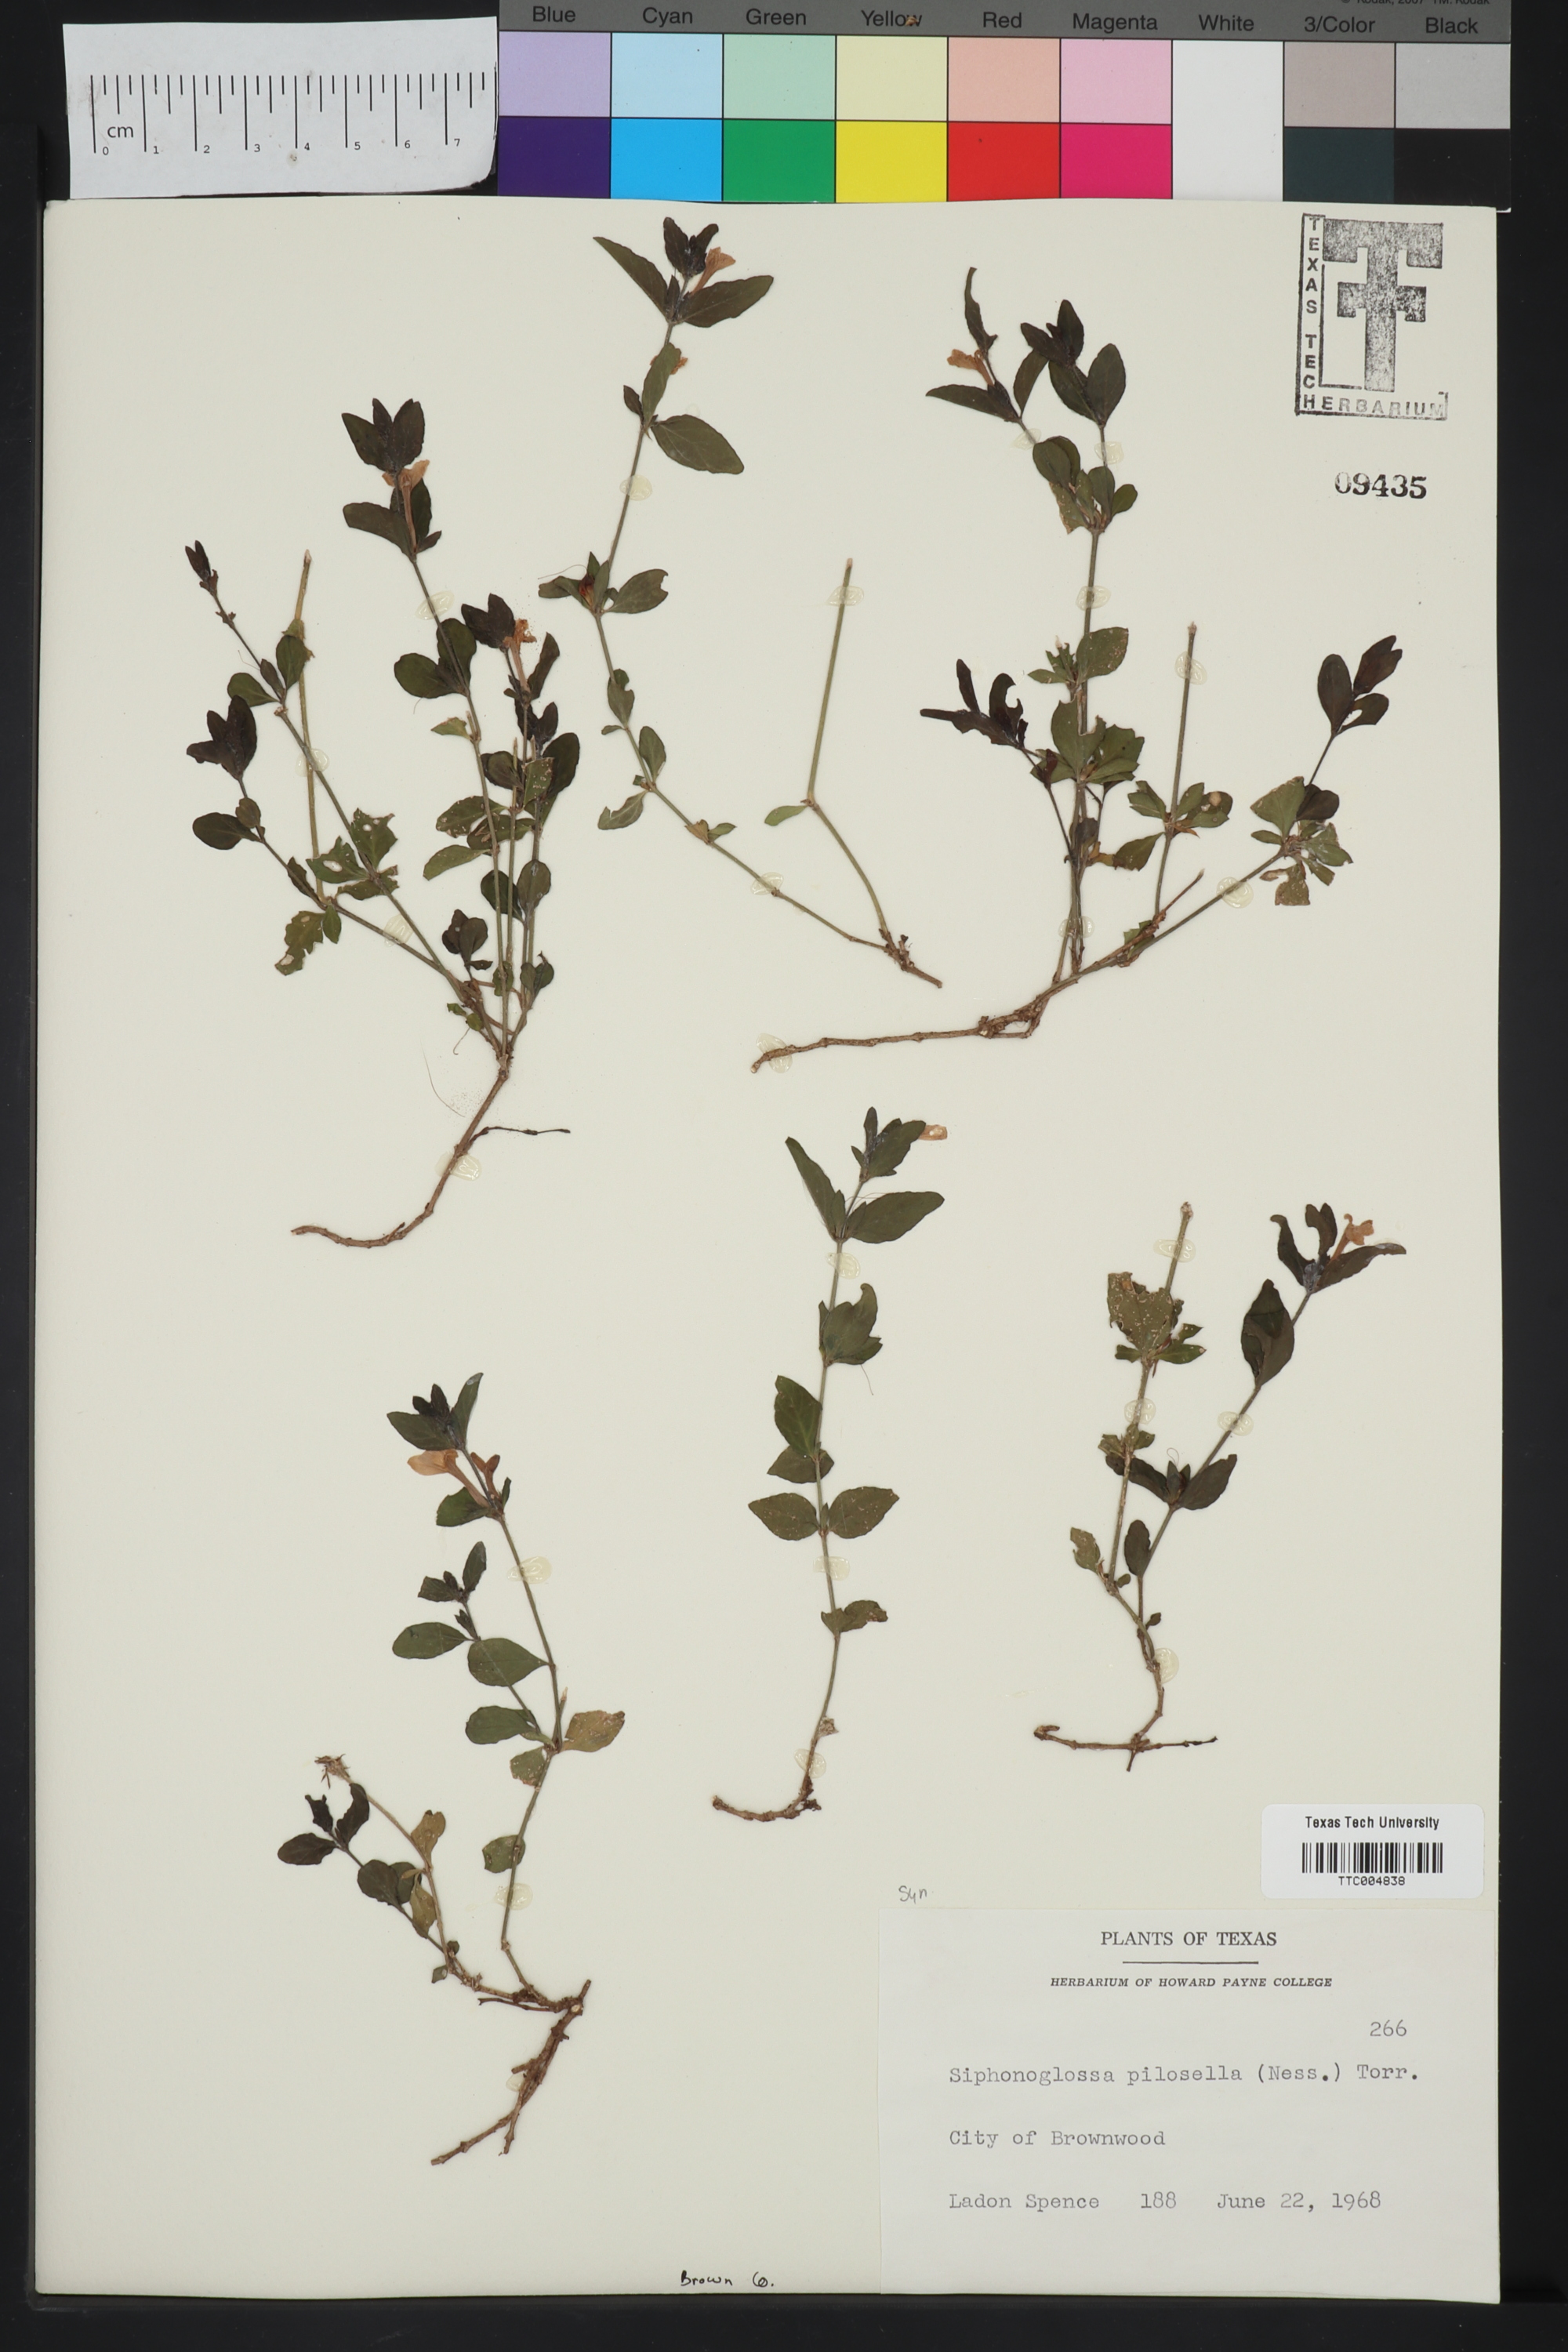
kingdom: Plantae
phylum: Tracheophyta
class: Magnoliopsida
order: Lamiales
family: Acanthaceae
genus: Justicia
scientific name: Justicia pilosella
